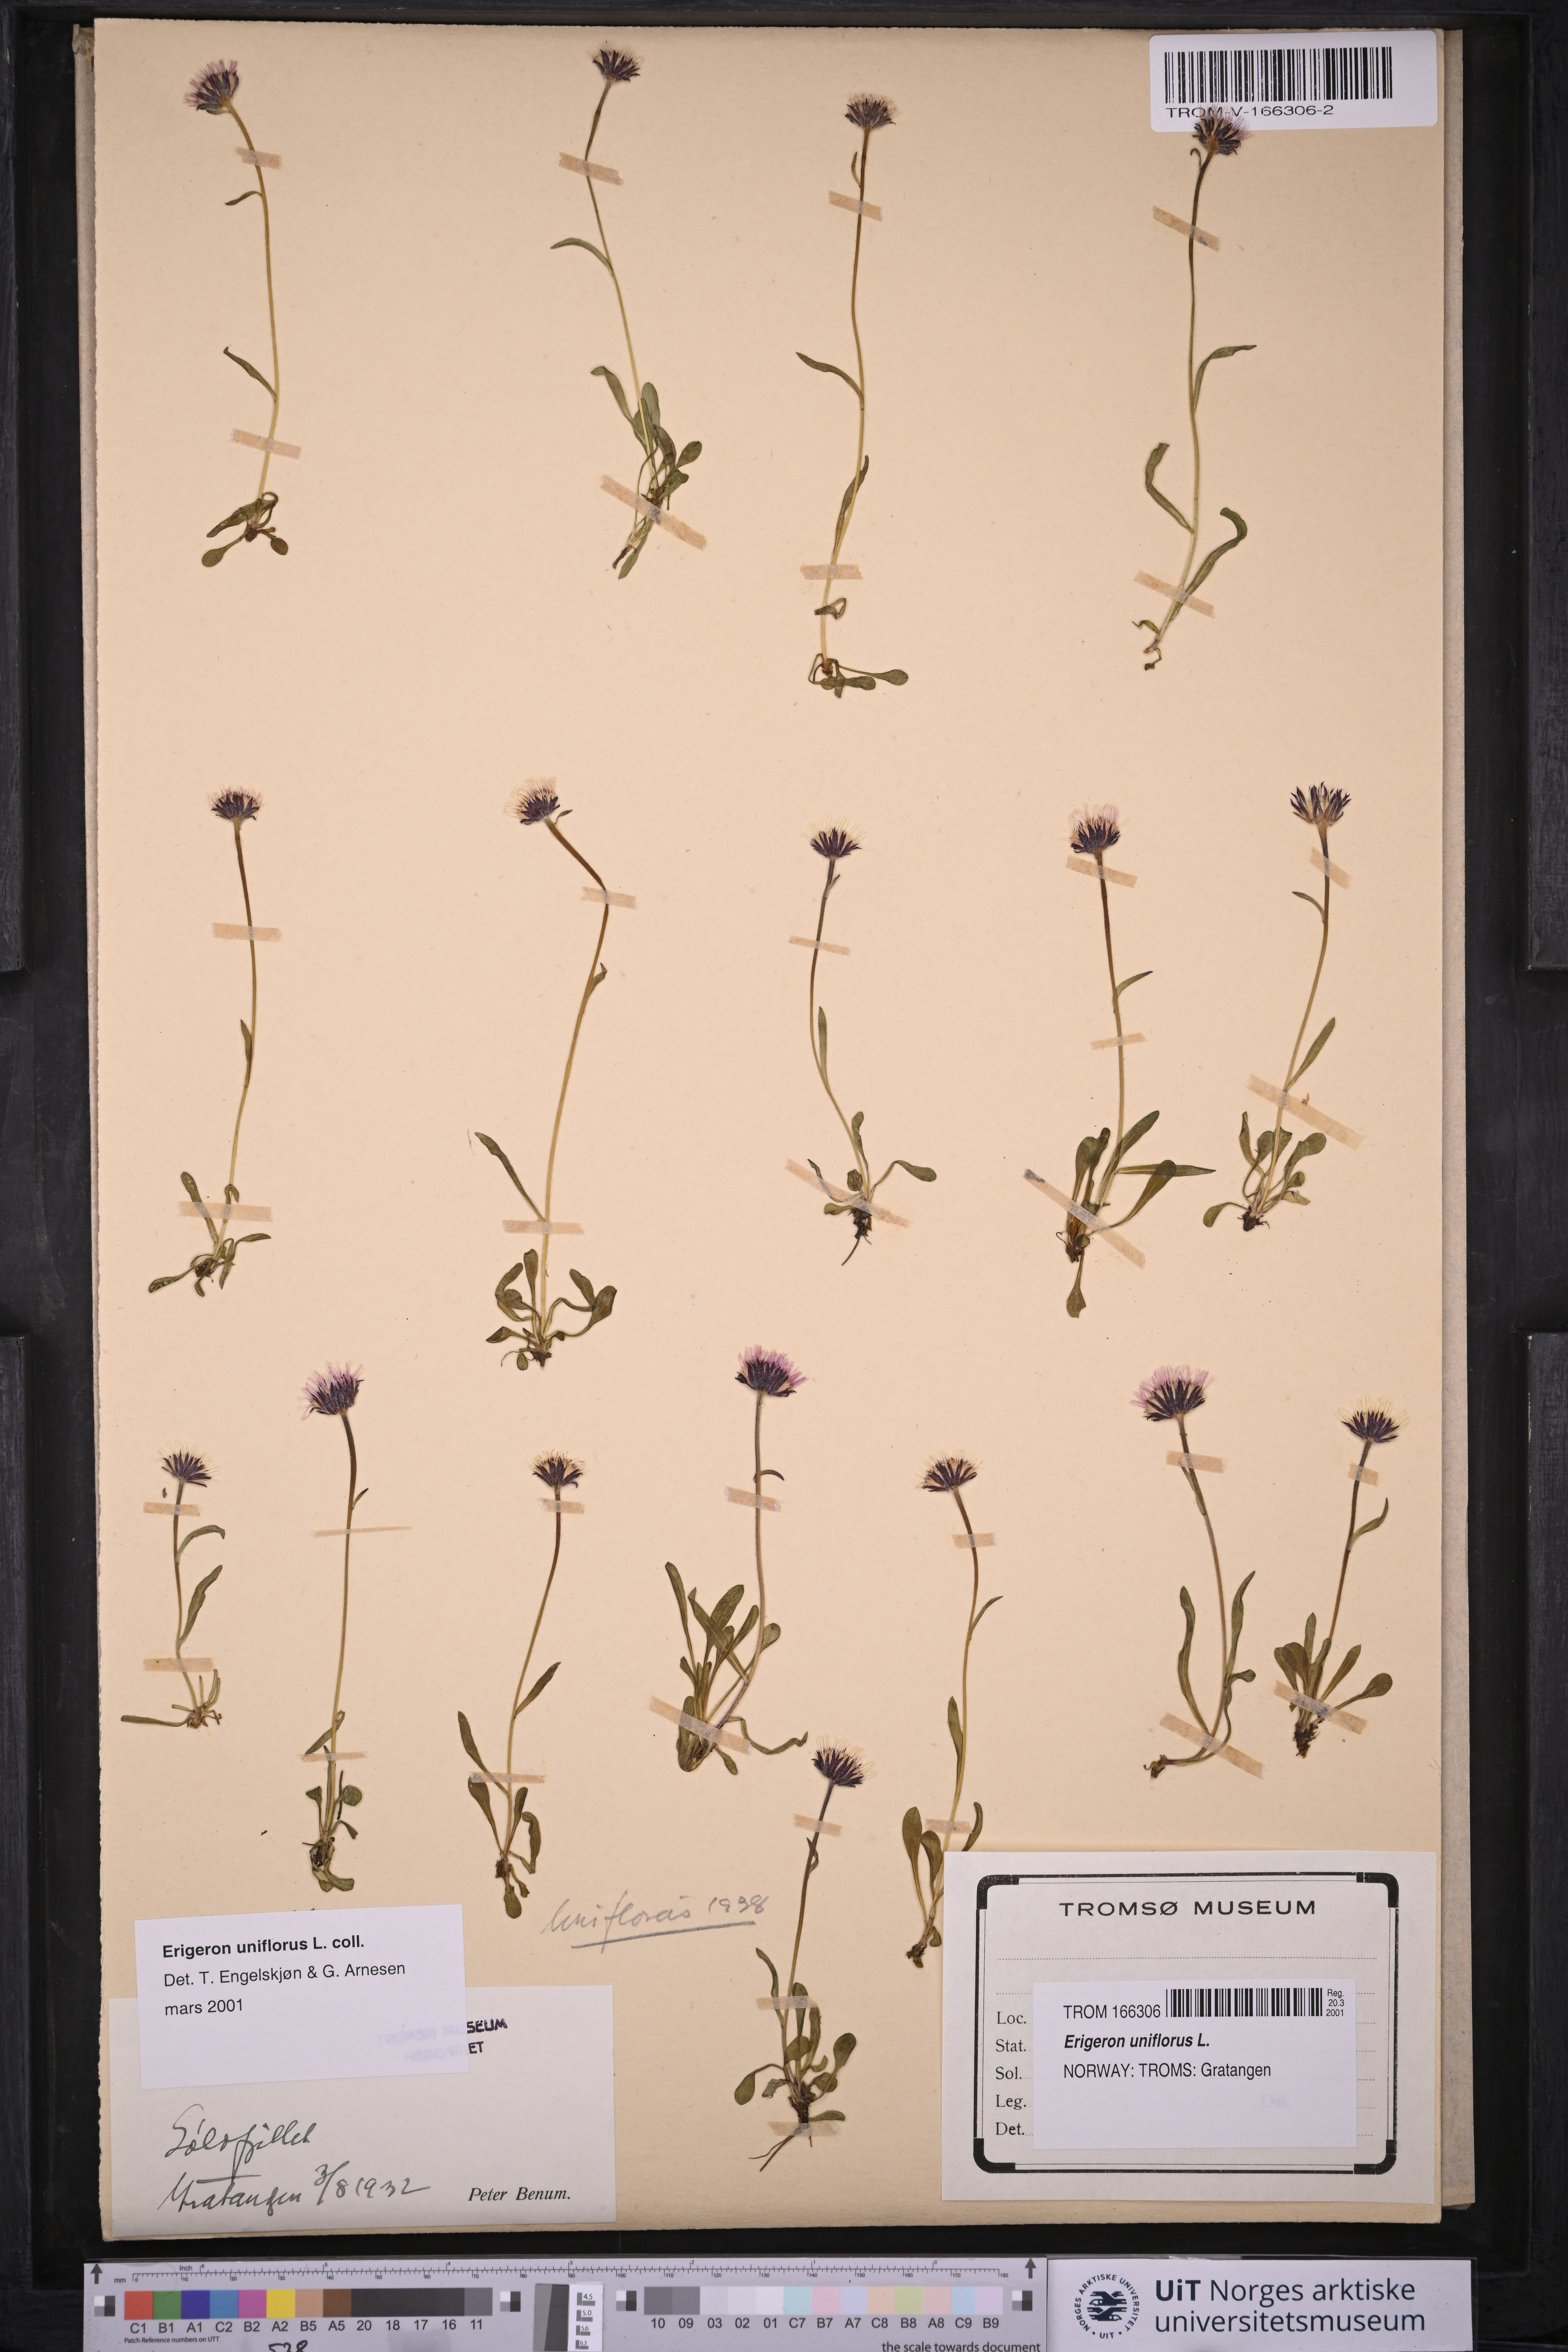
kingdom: Plantae
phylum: Tracheophyta
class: Magnoliopsida
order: Asterales
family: Asteraceae
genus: Erigeron
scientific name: Erigeron uniflorus
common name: Northern daisy
